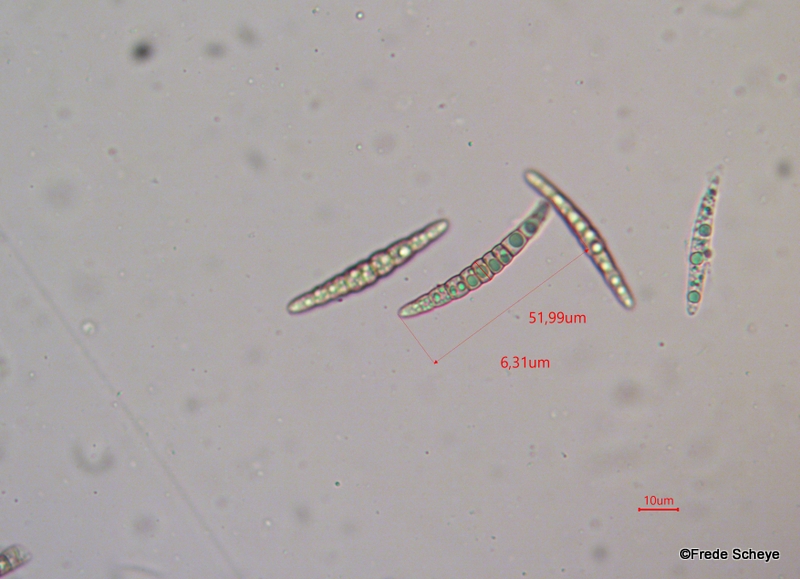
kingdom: Fungi
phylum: Ascomycota
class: Dothideomycetes
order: Pleosporales
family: Leptosphaeriaceae
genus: Leptosphaeria
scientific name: Leptosphaeria acuta
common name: spids kulkegle
